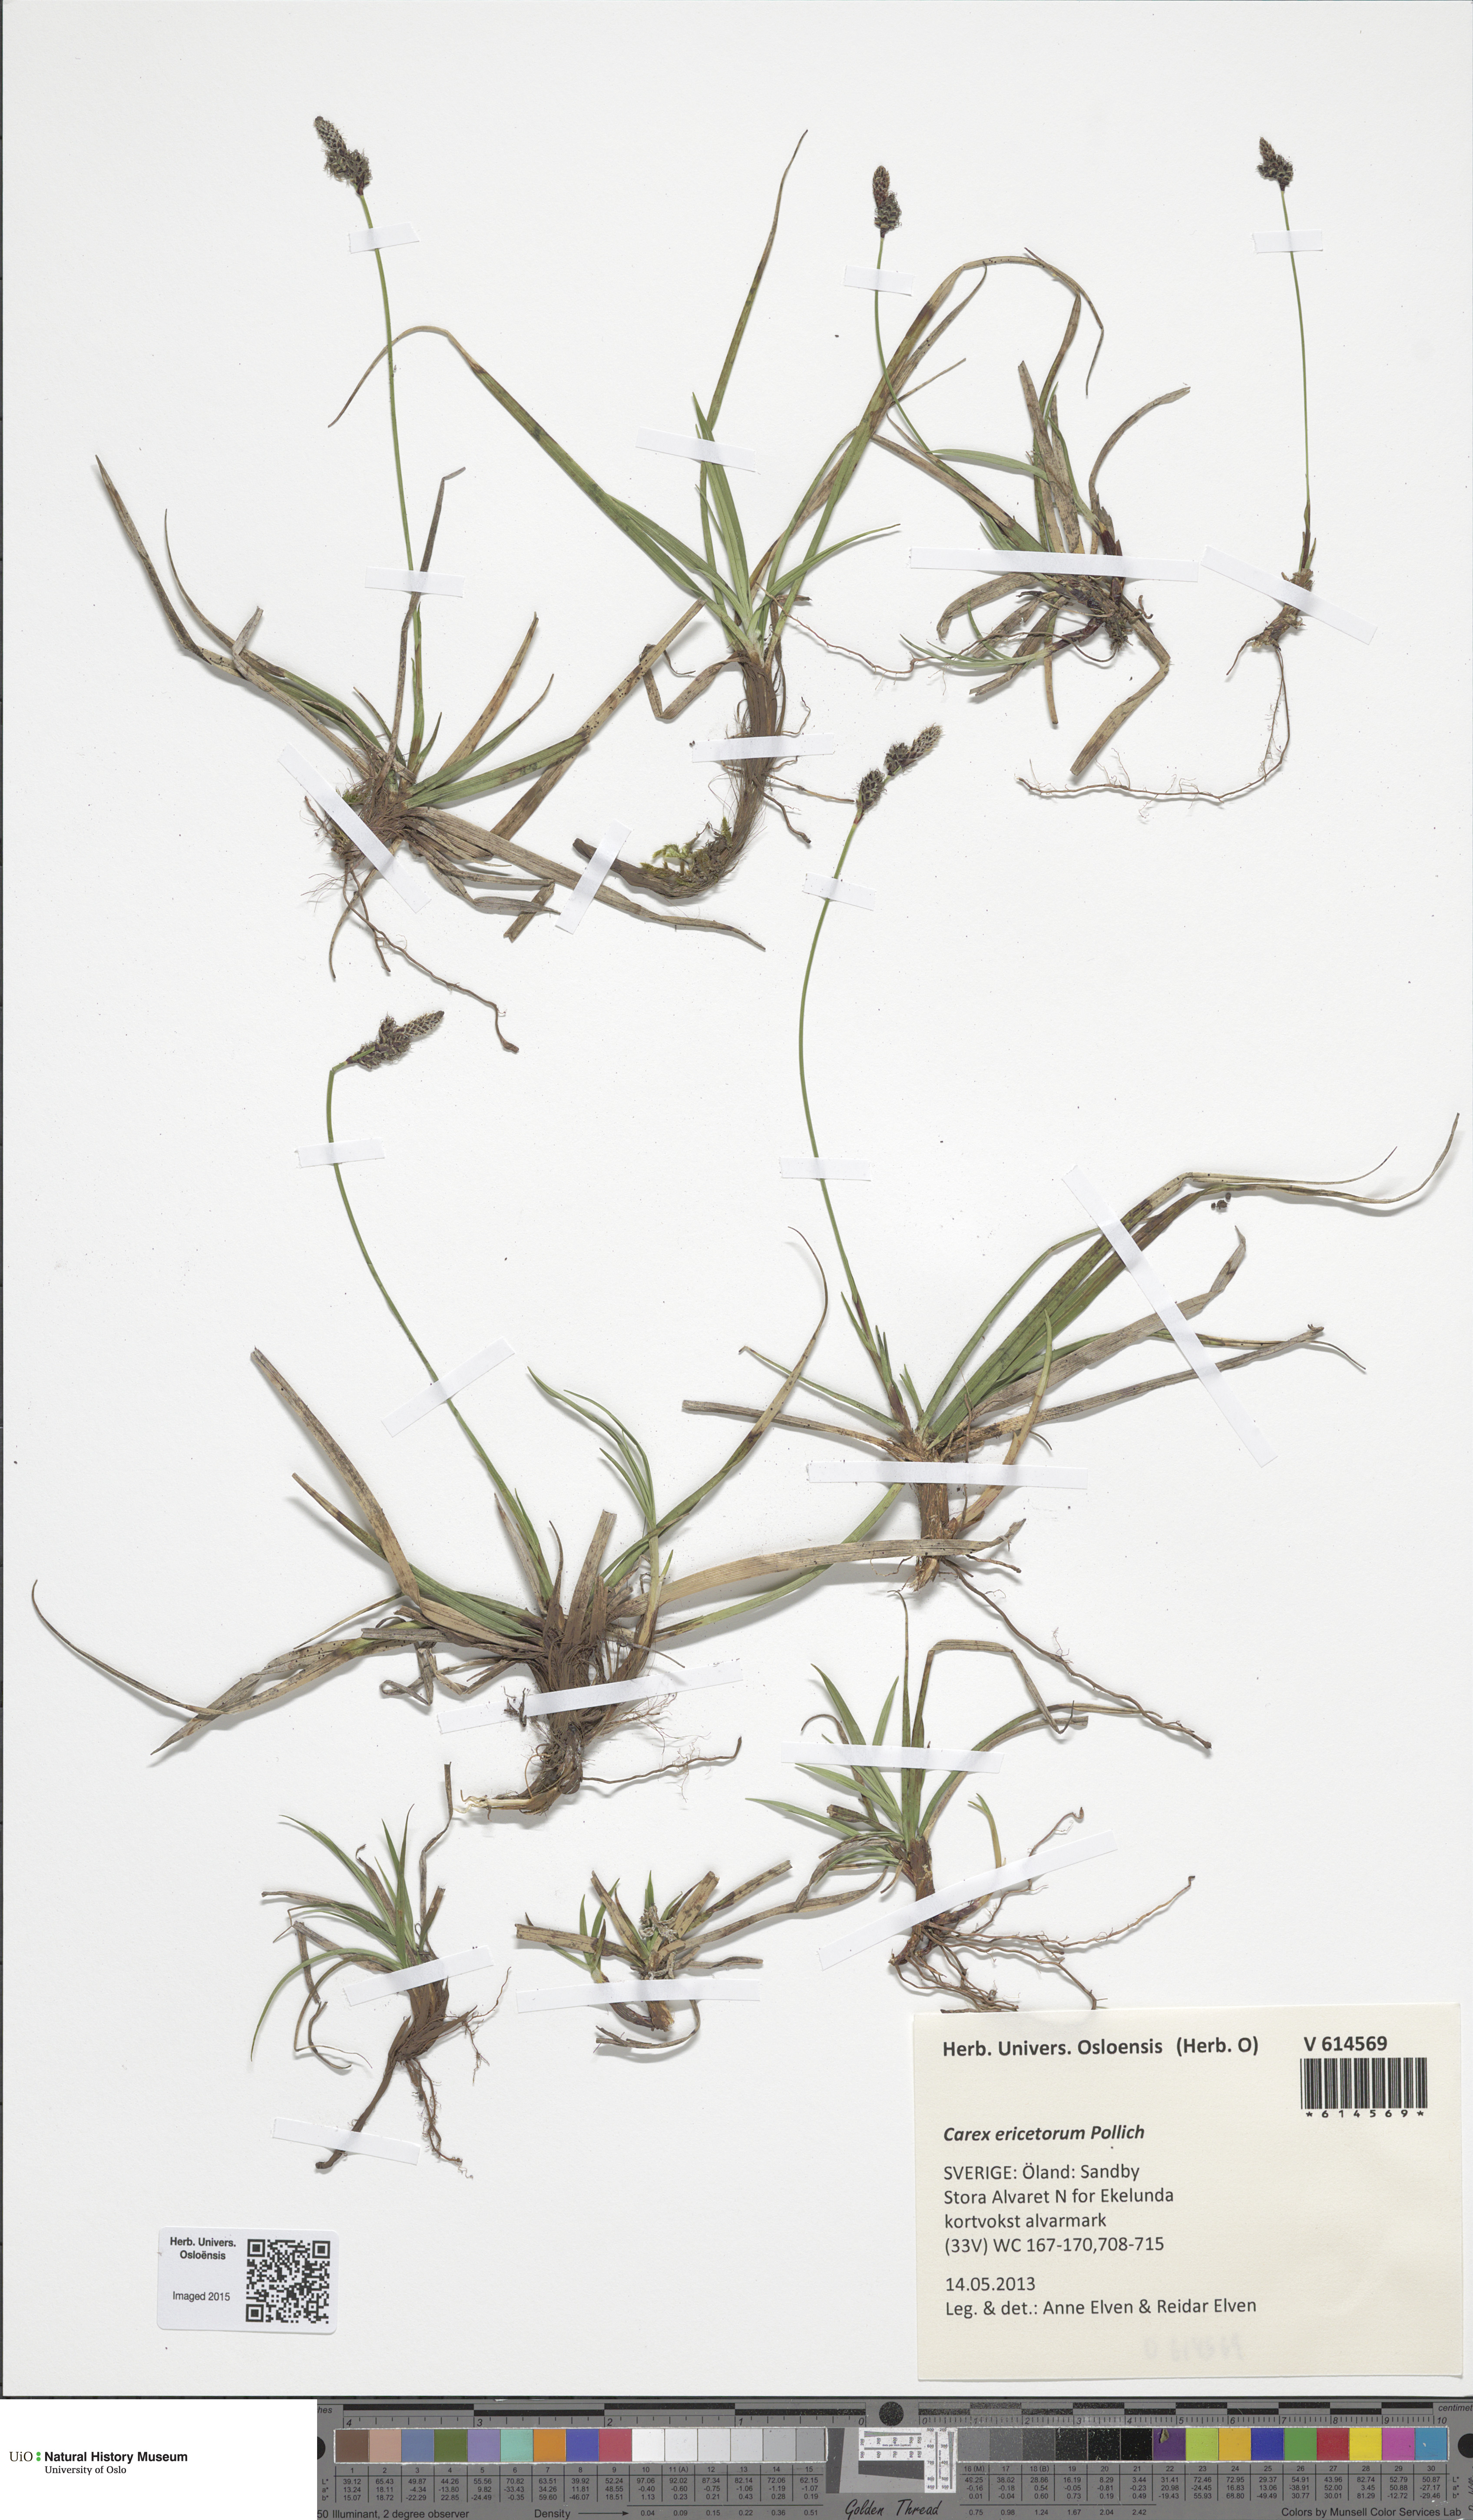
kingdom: Plantae
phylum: Tracheophyta
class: Liliopsida
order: Poales
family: Cyperaceae
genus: Carex
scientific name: Carex ericetorum
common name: Rare spring-sedge
